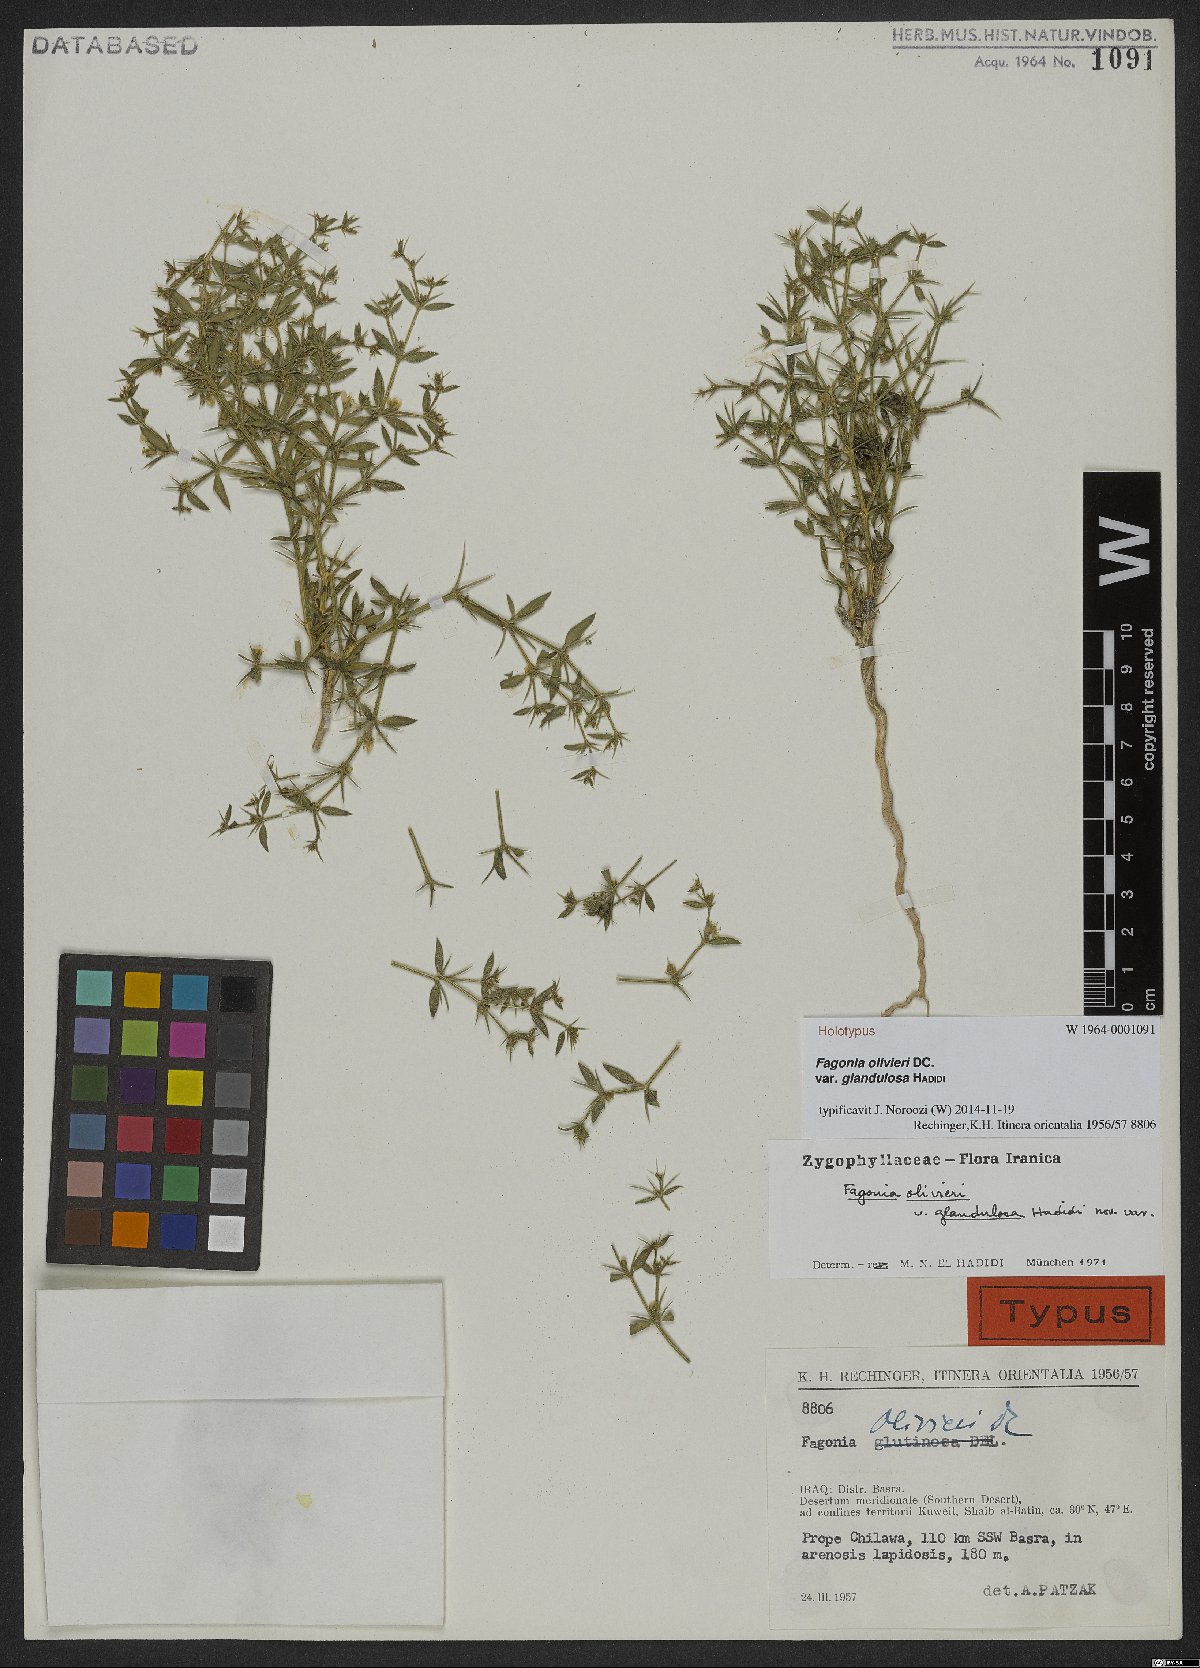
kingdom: Plantae
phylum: Tracheophyta
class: Magnoliopsida
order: Zygophyllales
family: Zygophyllaceae
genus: Fagonia
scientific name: Fagonia bruguieri
